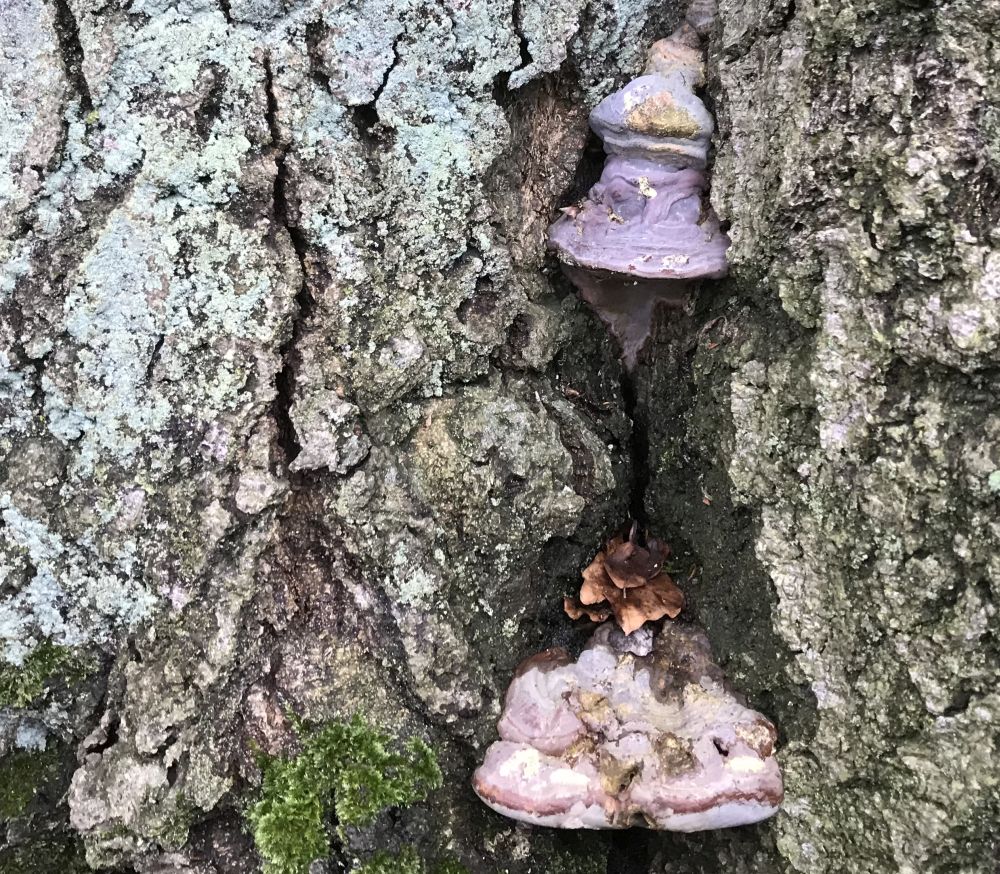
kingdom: Fungi
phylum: Basidiomycota
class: Agaricomycetes
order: Polyporales
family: Polyporaceae
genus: Ganoderma
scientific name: Ganoderma pfeifferi
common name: kobberrød lakporesvamp
